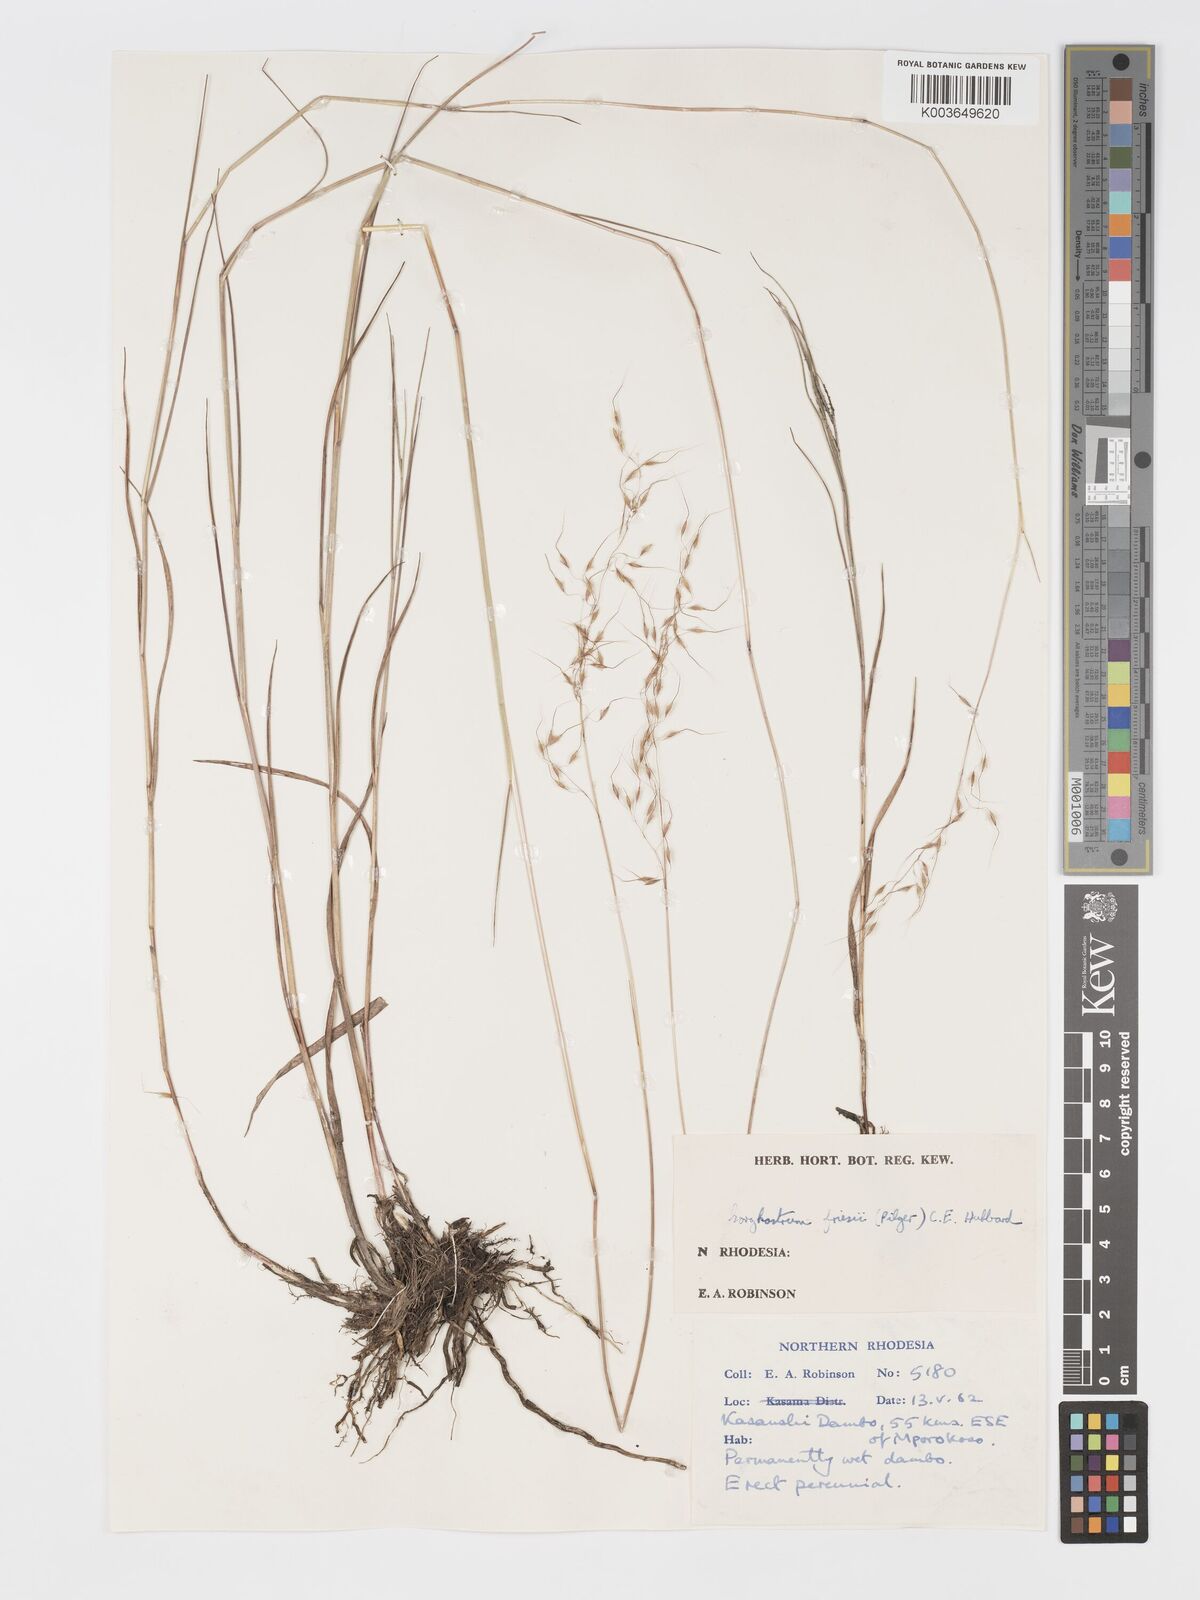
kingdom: Plantae
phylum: Tracheophyta
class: Liliopsida
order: Poales
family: Poaceae
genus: Sorghastrum
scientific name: Sorghastrum stipoides
